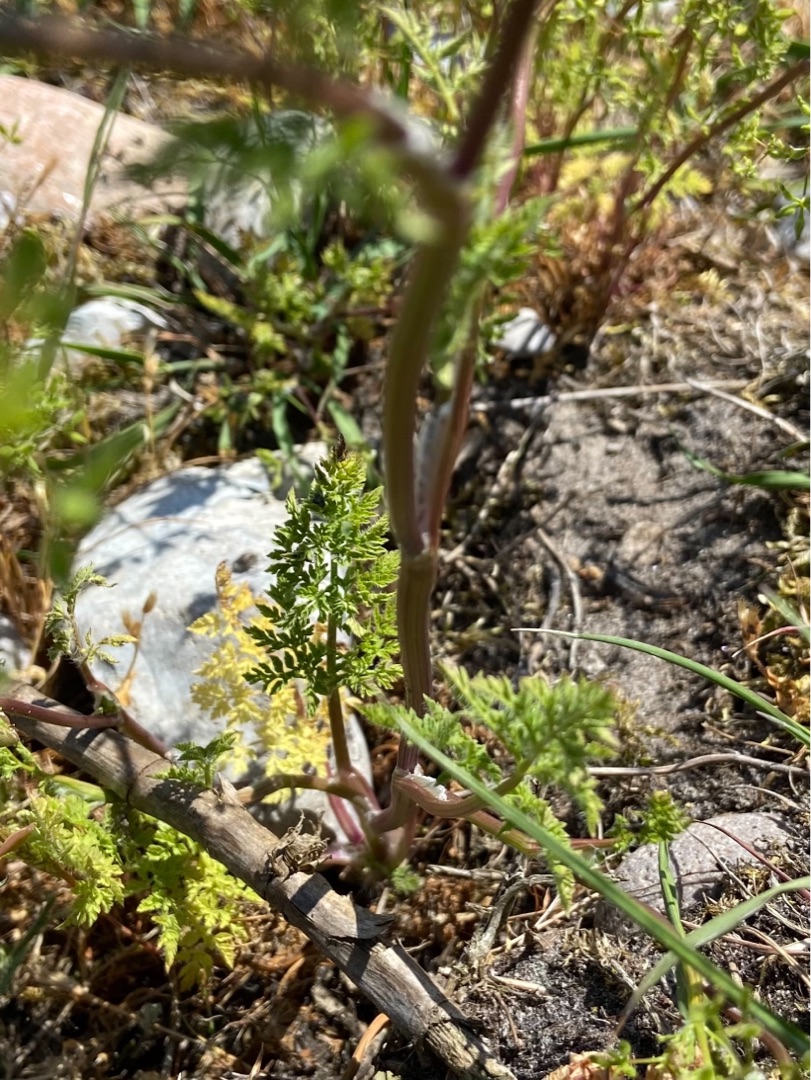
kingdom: Plantae
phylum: Tracheophyta
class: Magnoliopsida
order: Apiales
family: Apiaceae
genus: Anthriscus
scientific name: Anthriscus caucalis
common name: Gærde-kørvel
